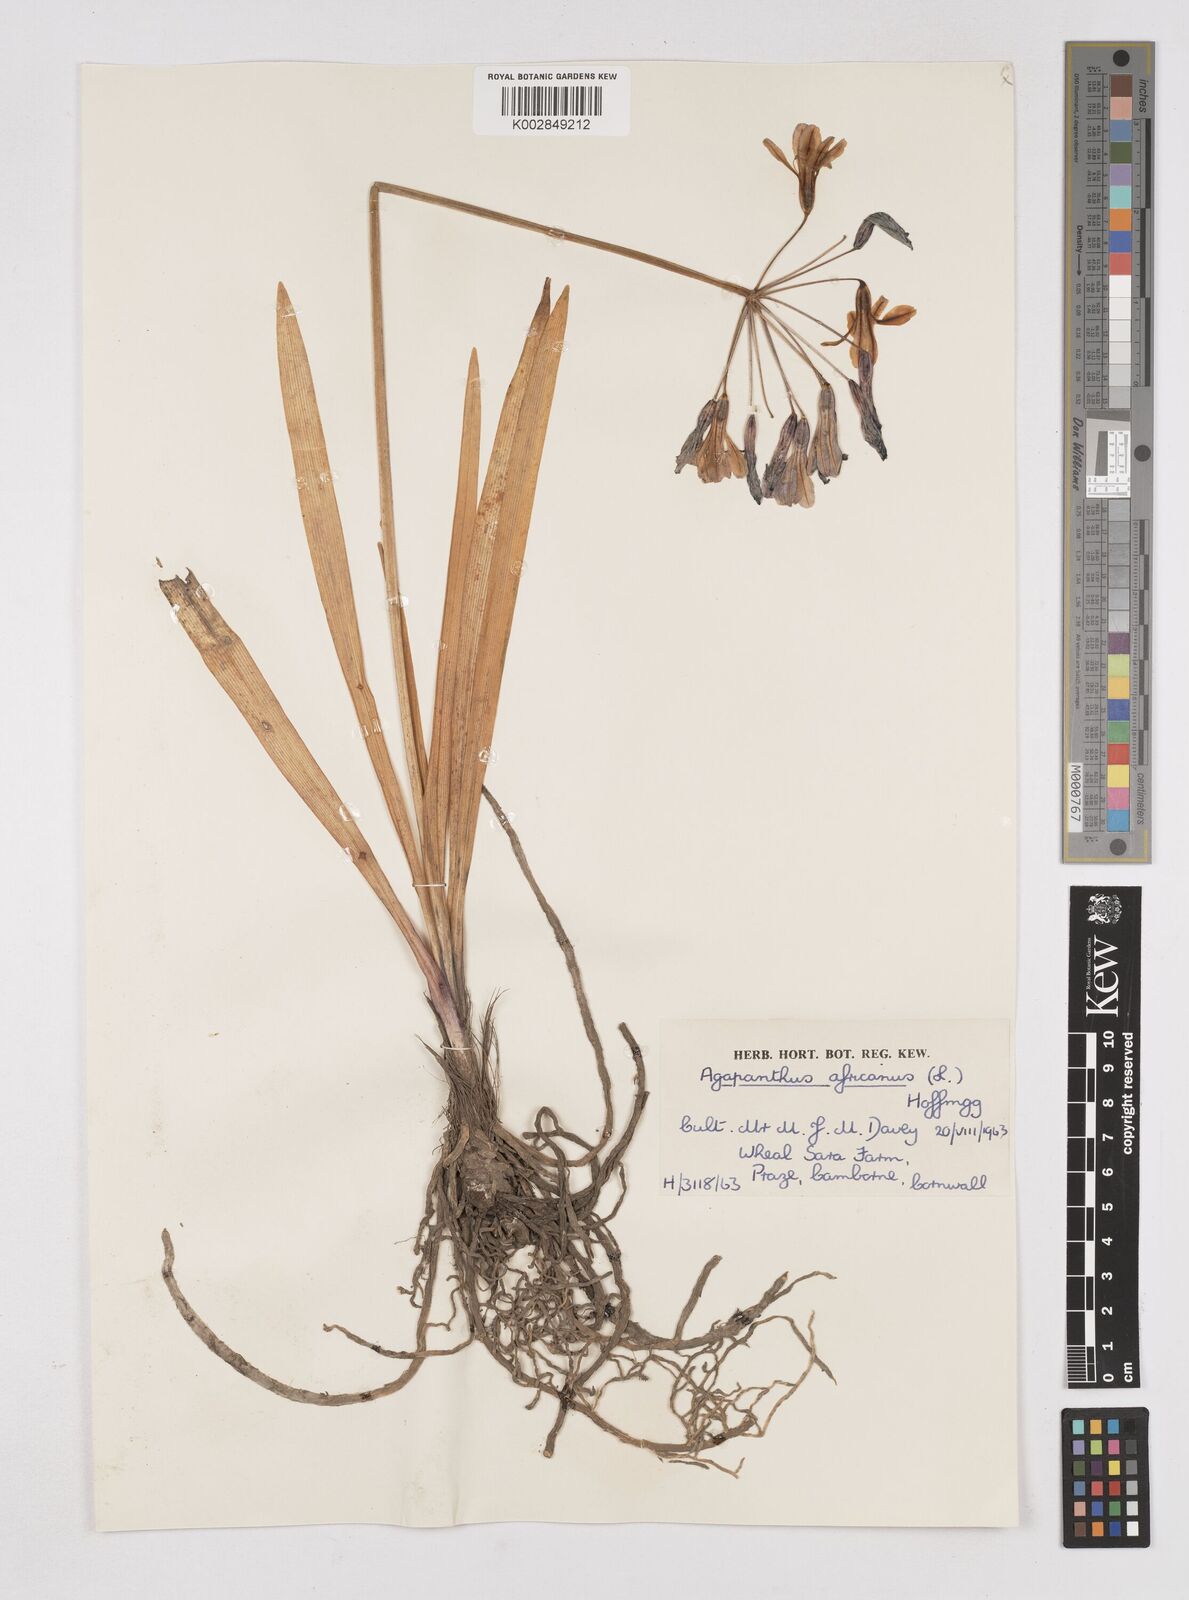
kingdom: Plantae
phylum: Tracheophyta
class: Liliopsida
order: Asparagales
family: Amaryllidaceae
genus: Agapanthus
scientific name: Agapanthus africanus
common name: Lily-of-the-nile
